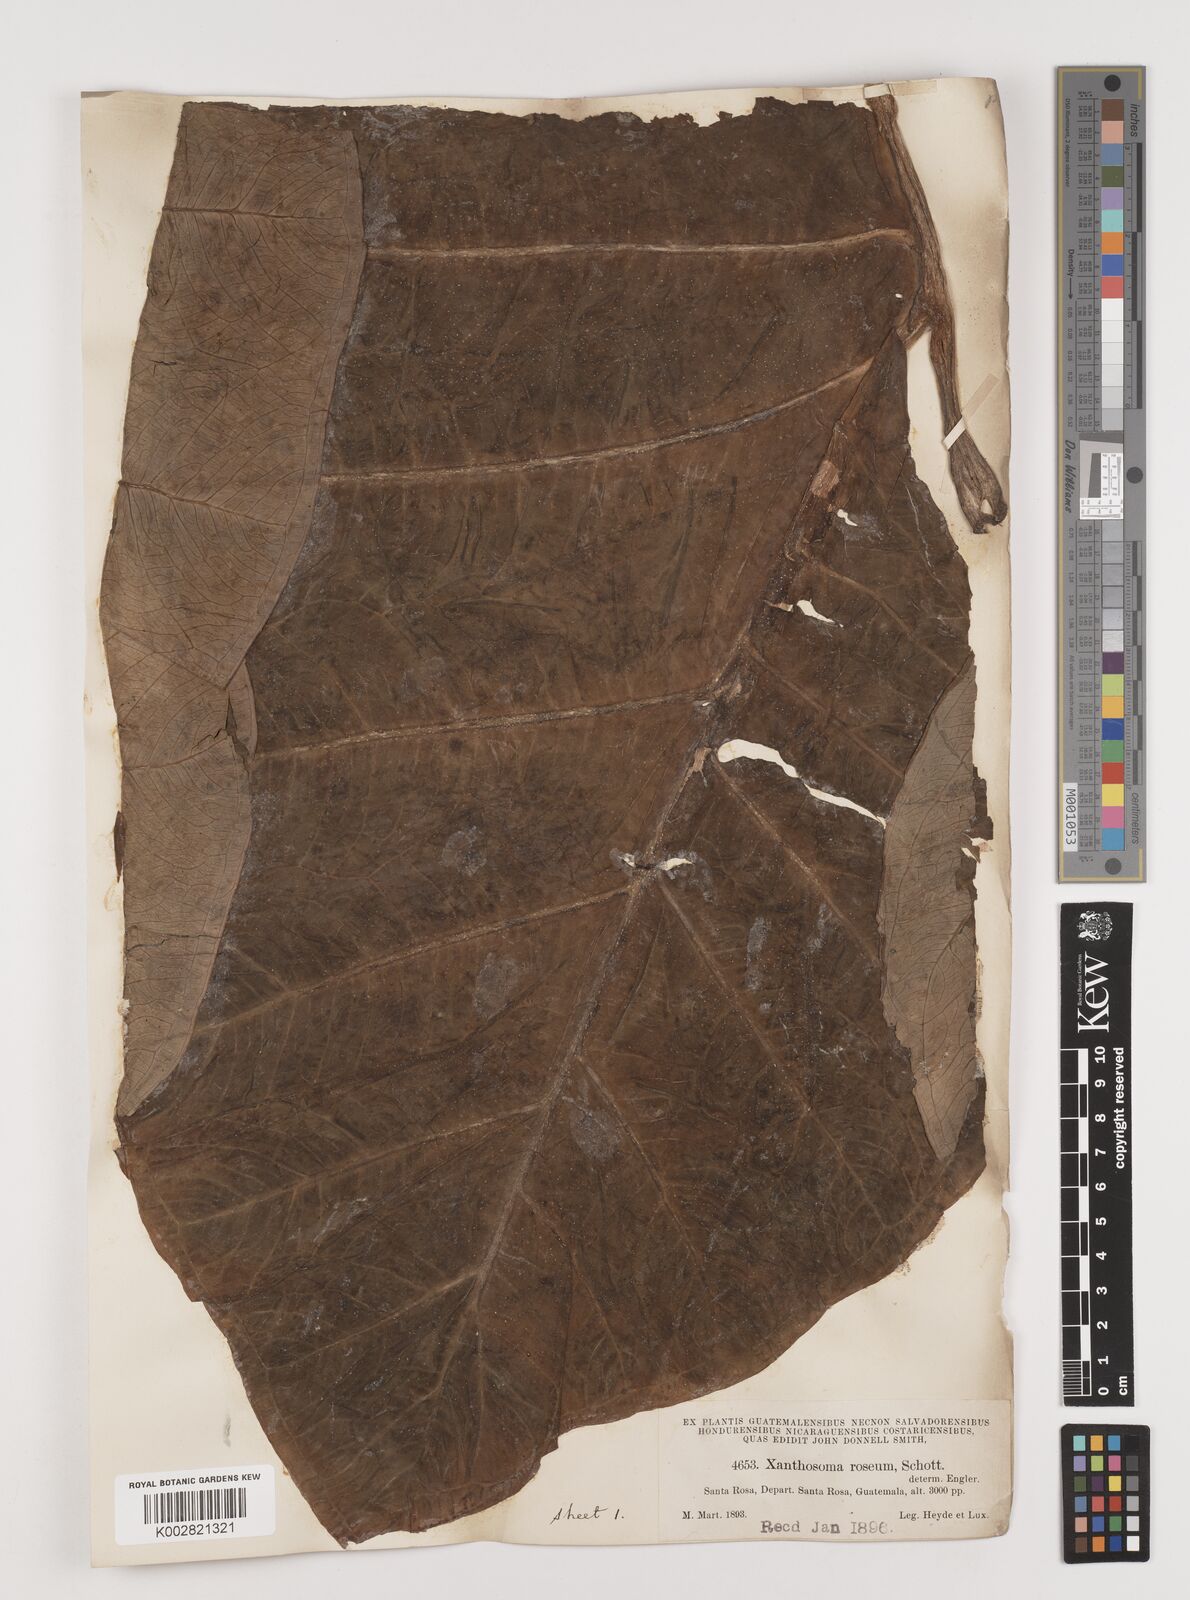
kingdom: Plantae
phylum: Tracheophyta
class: Liliopsida
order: Alismatales
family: Araceae
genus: Xanthosoma
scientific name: Xanthosoma sagittifolium
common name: Arrowleaf elephant's ear
